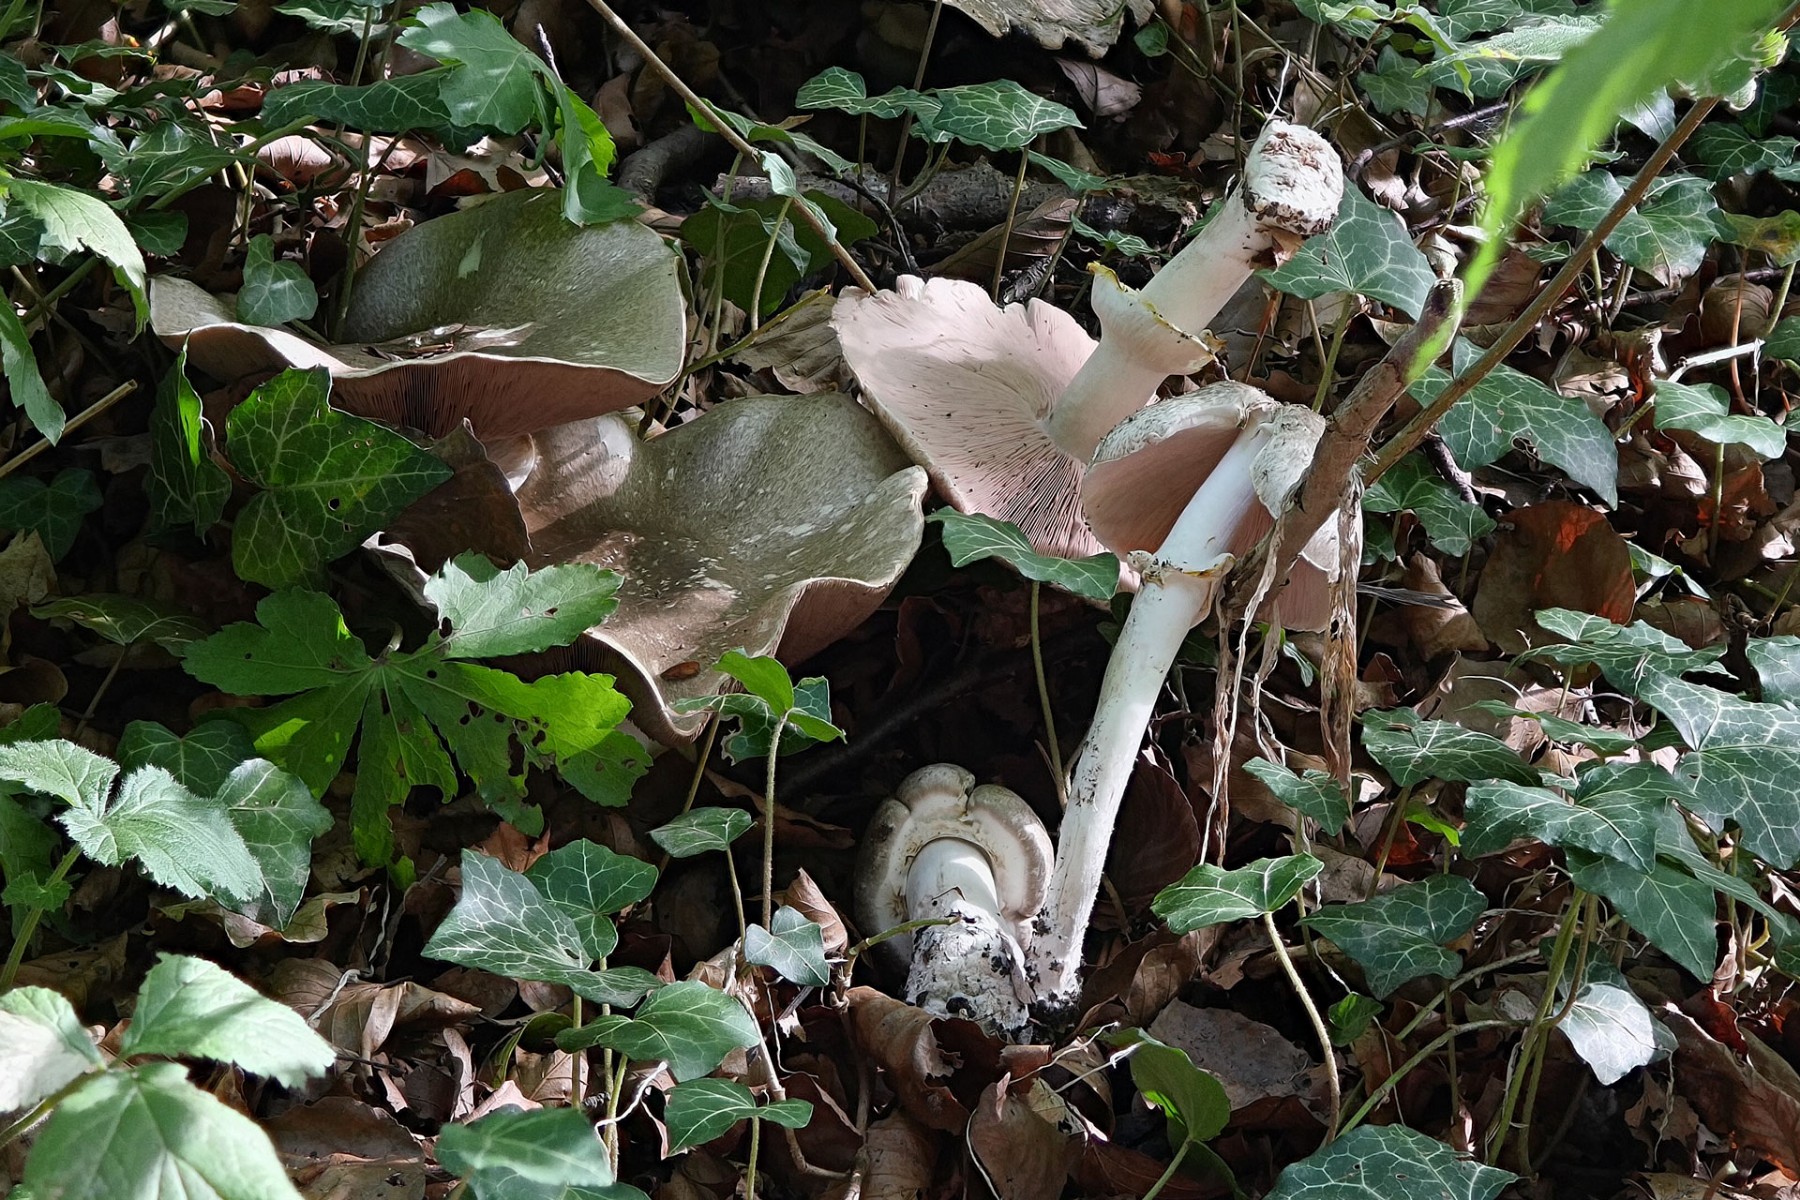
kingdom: Fungi
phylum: Basidiomycota
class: Agaricomycetes
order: Agaricales
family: Agaricaceae
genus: Agaricus
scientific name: Agaricus moelleri
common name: perlehøne-champignon
